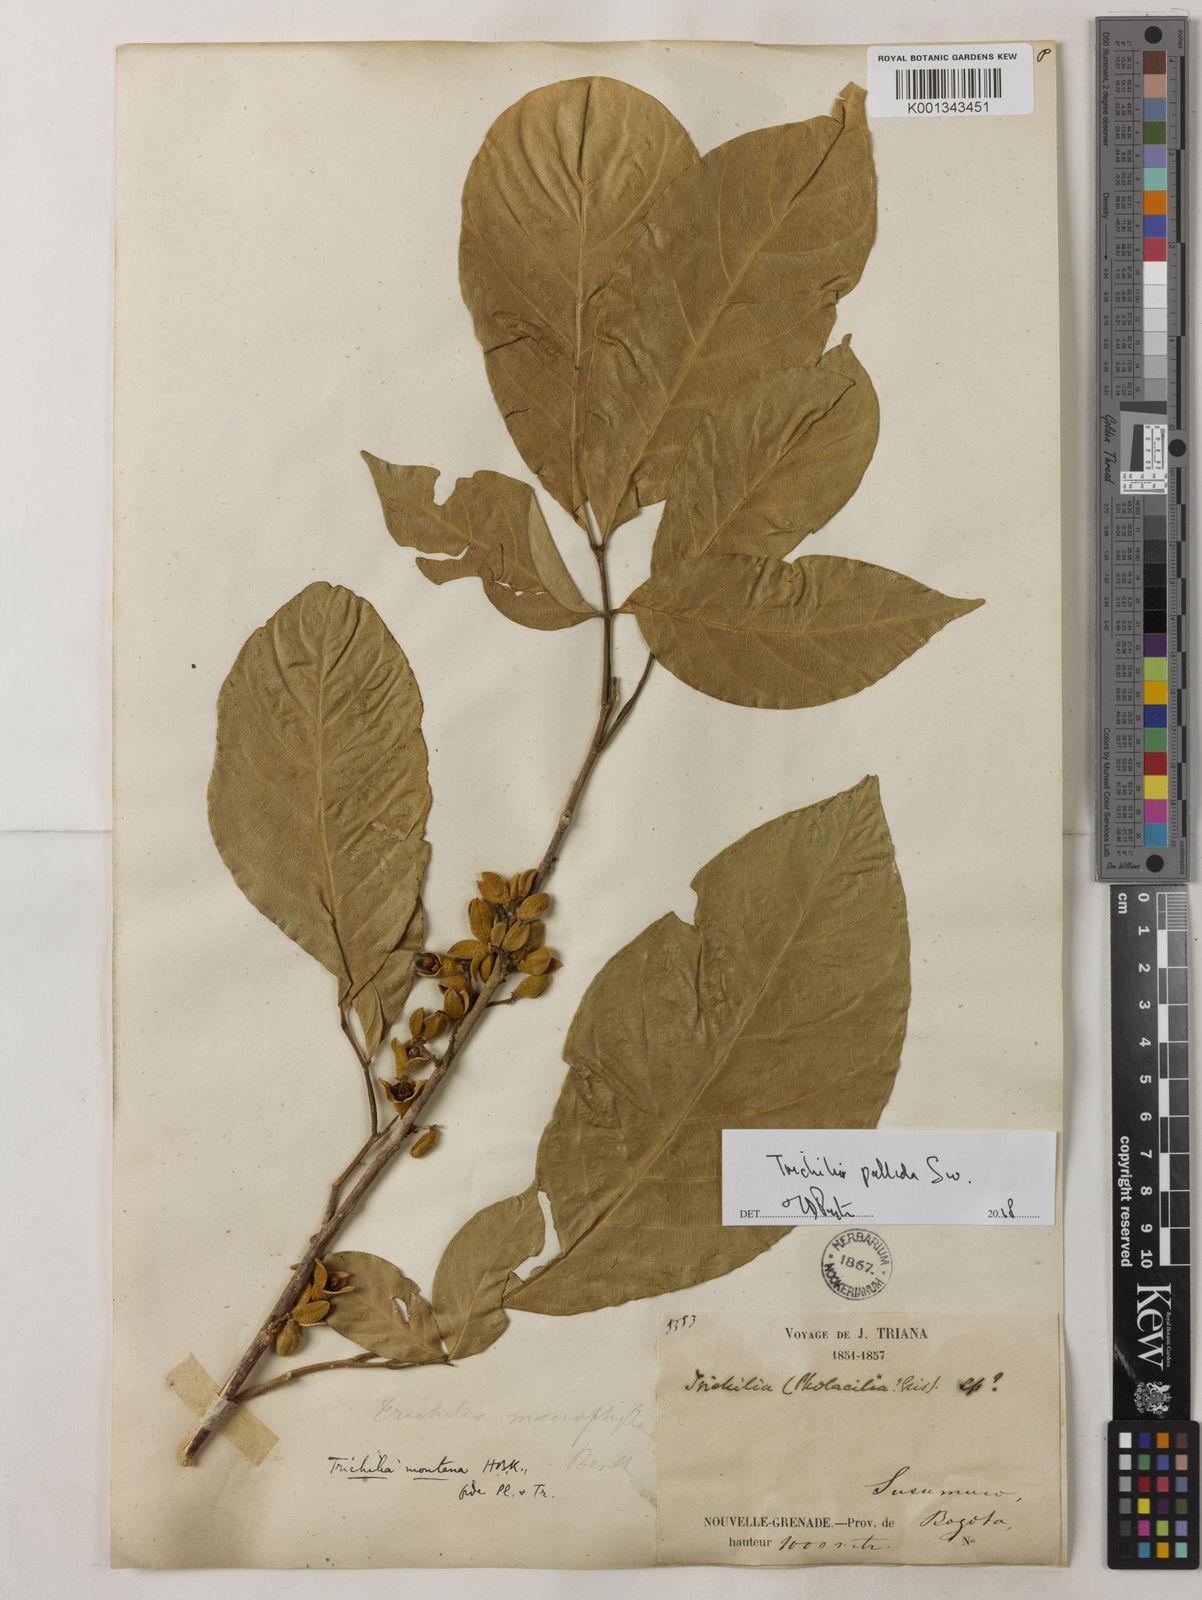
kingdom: Plantae
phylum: Tracheophyta
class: Magnoliopsida
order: Sapindales
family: Meliaceae
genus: Trichilia
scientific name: Trichilia pallida
